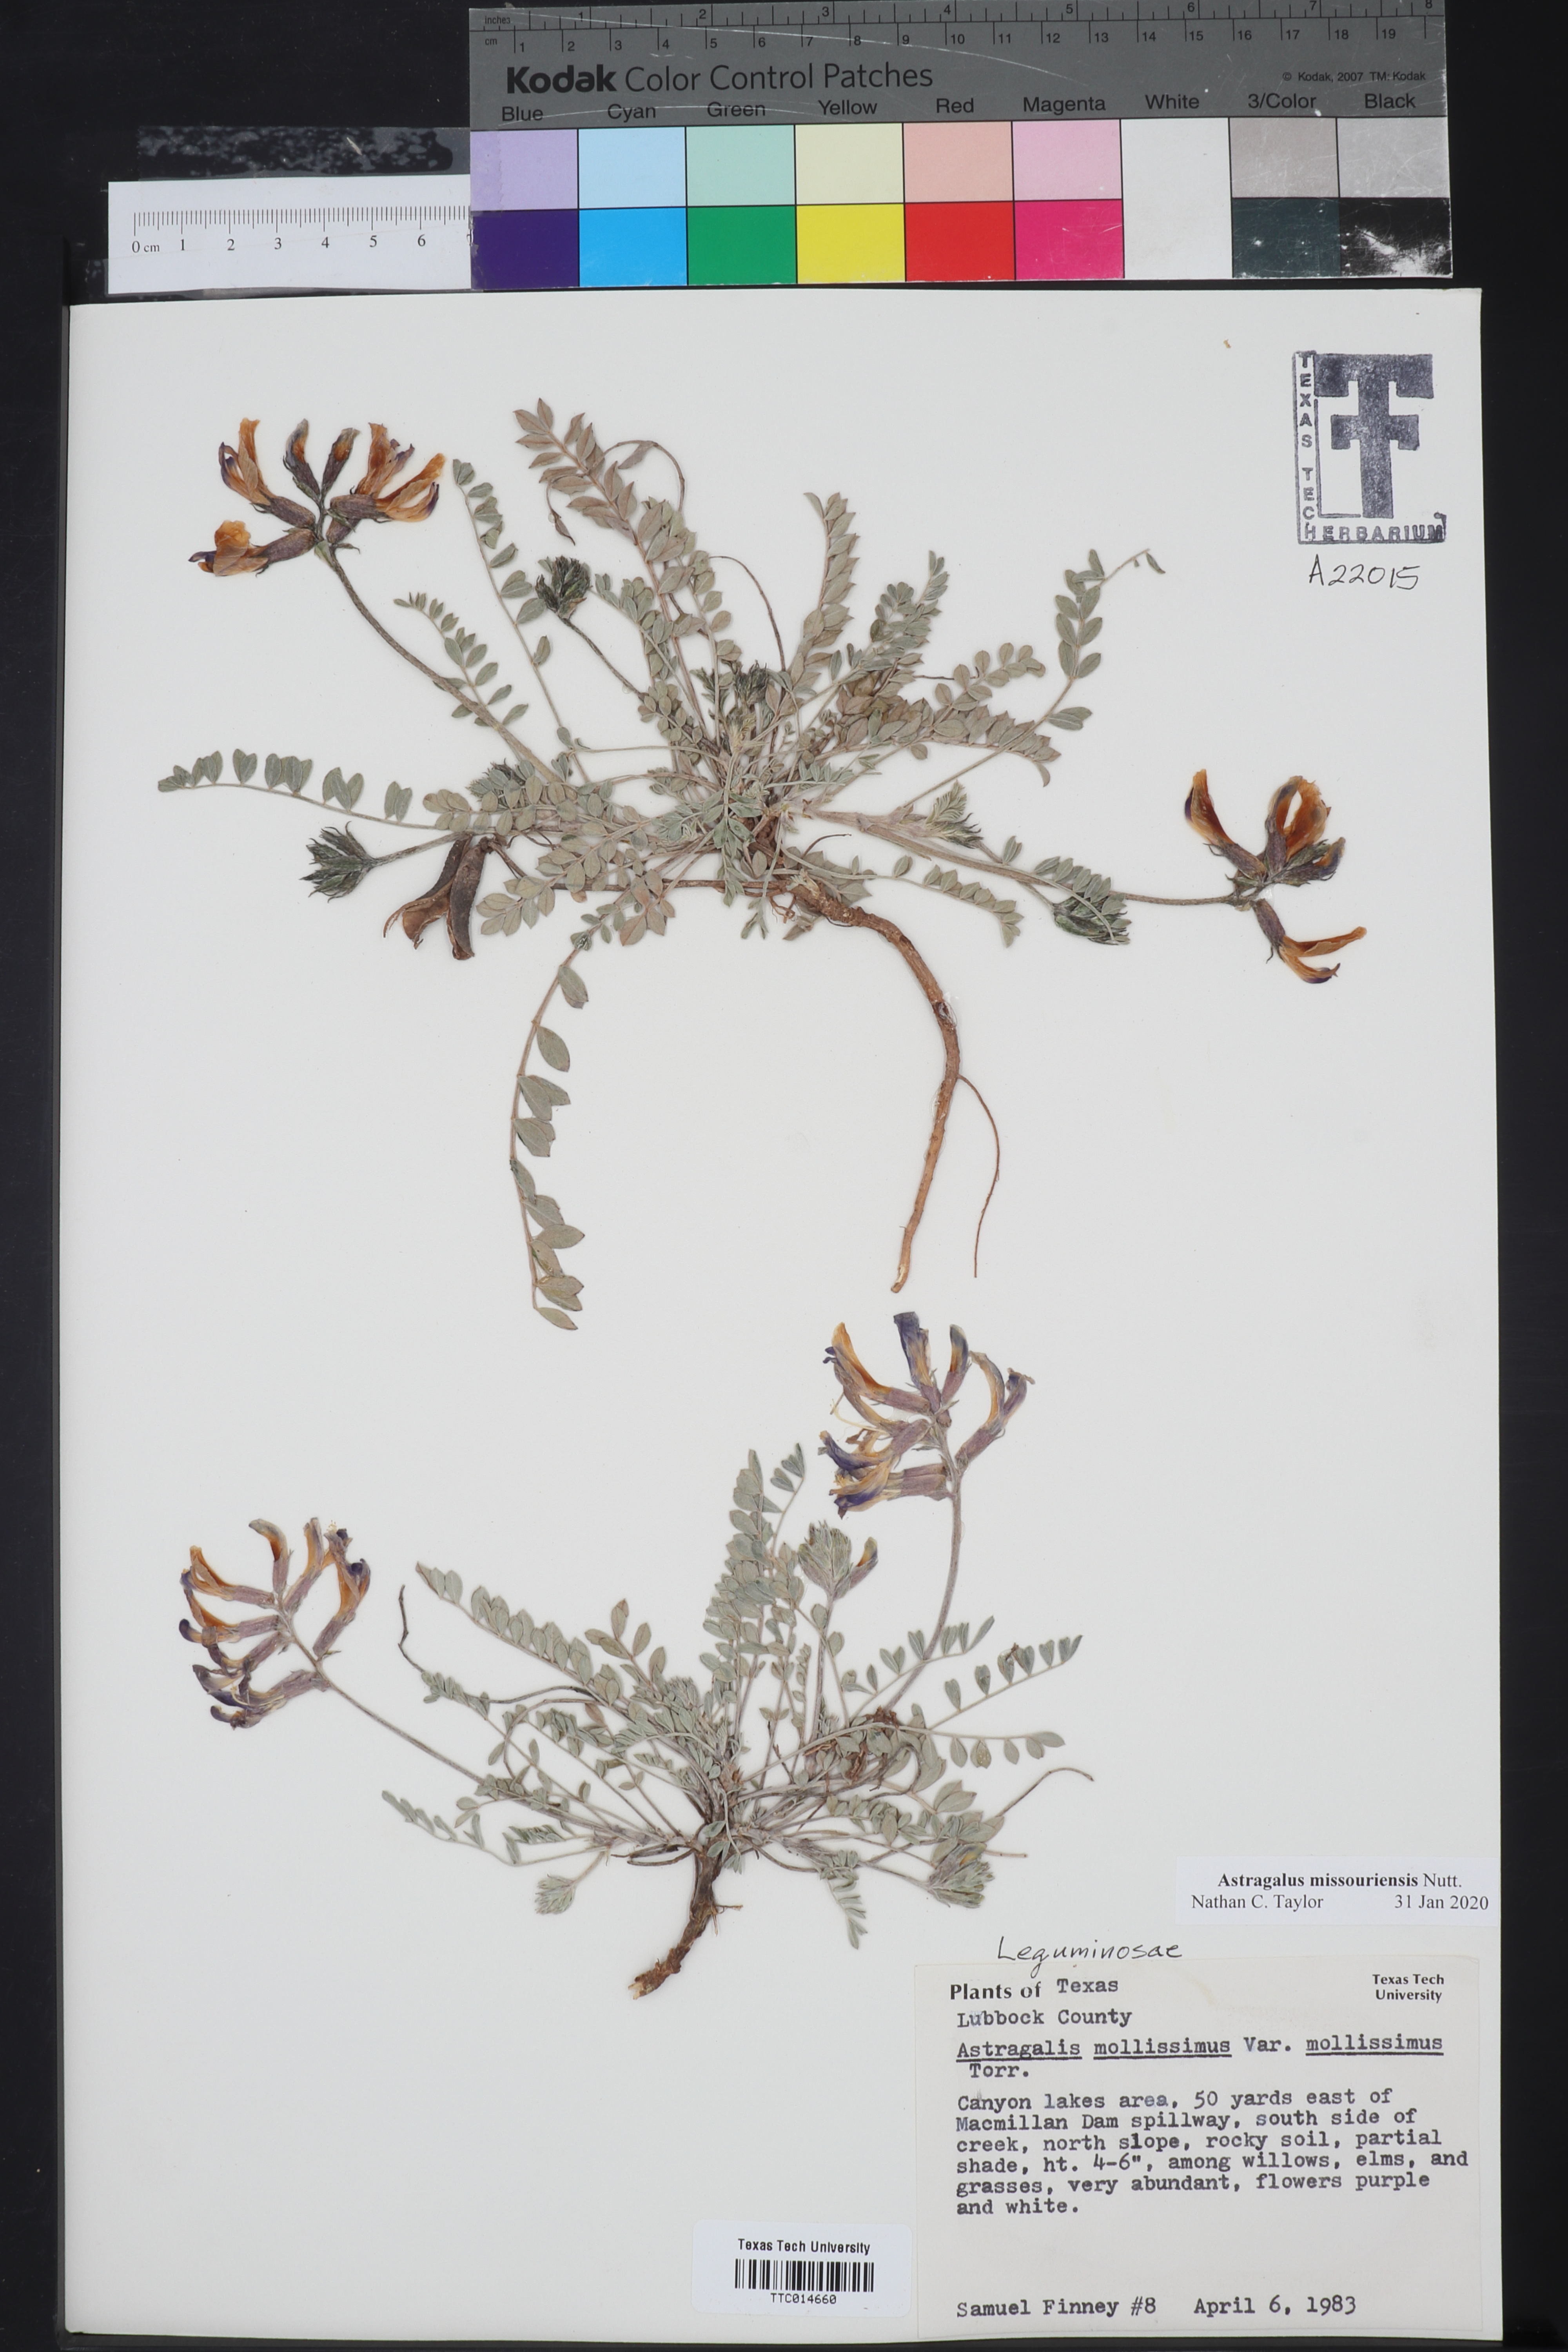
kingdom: Plantae
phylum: Tracheophyta
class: Magnoliopsida
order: Fabales
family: Fabaceae
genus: Astragalus
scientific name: Astragalus missouriensis
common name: Missouri milk-vetch
